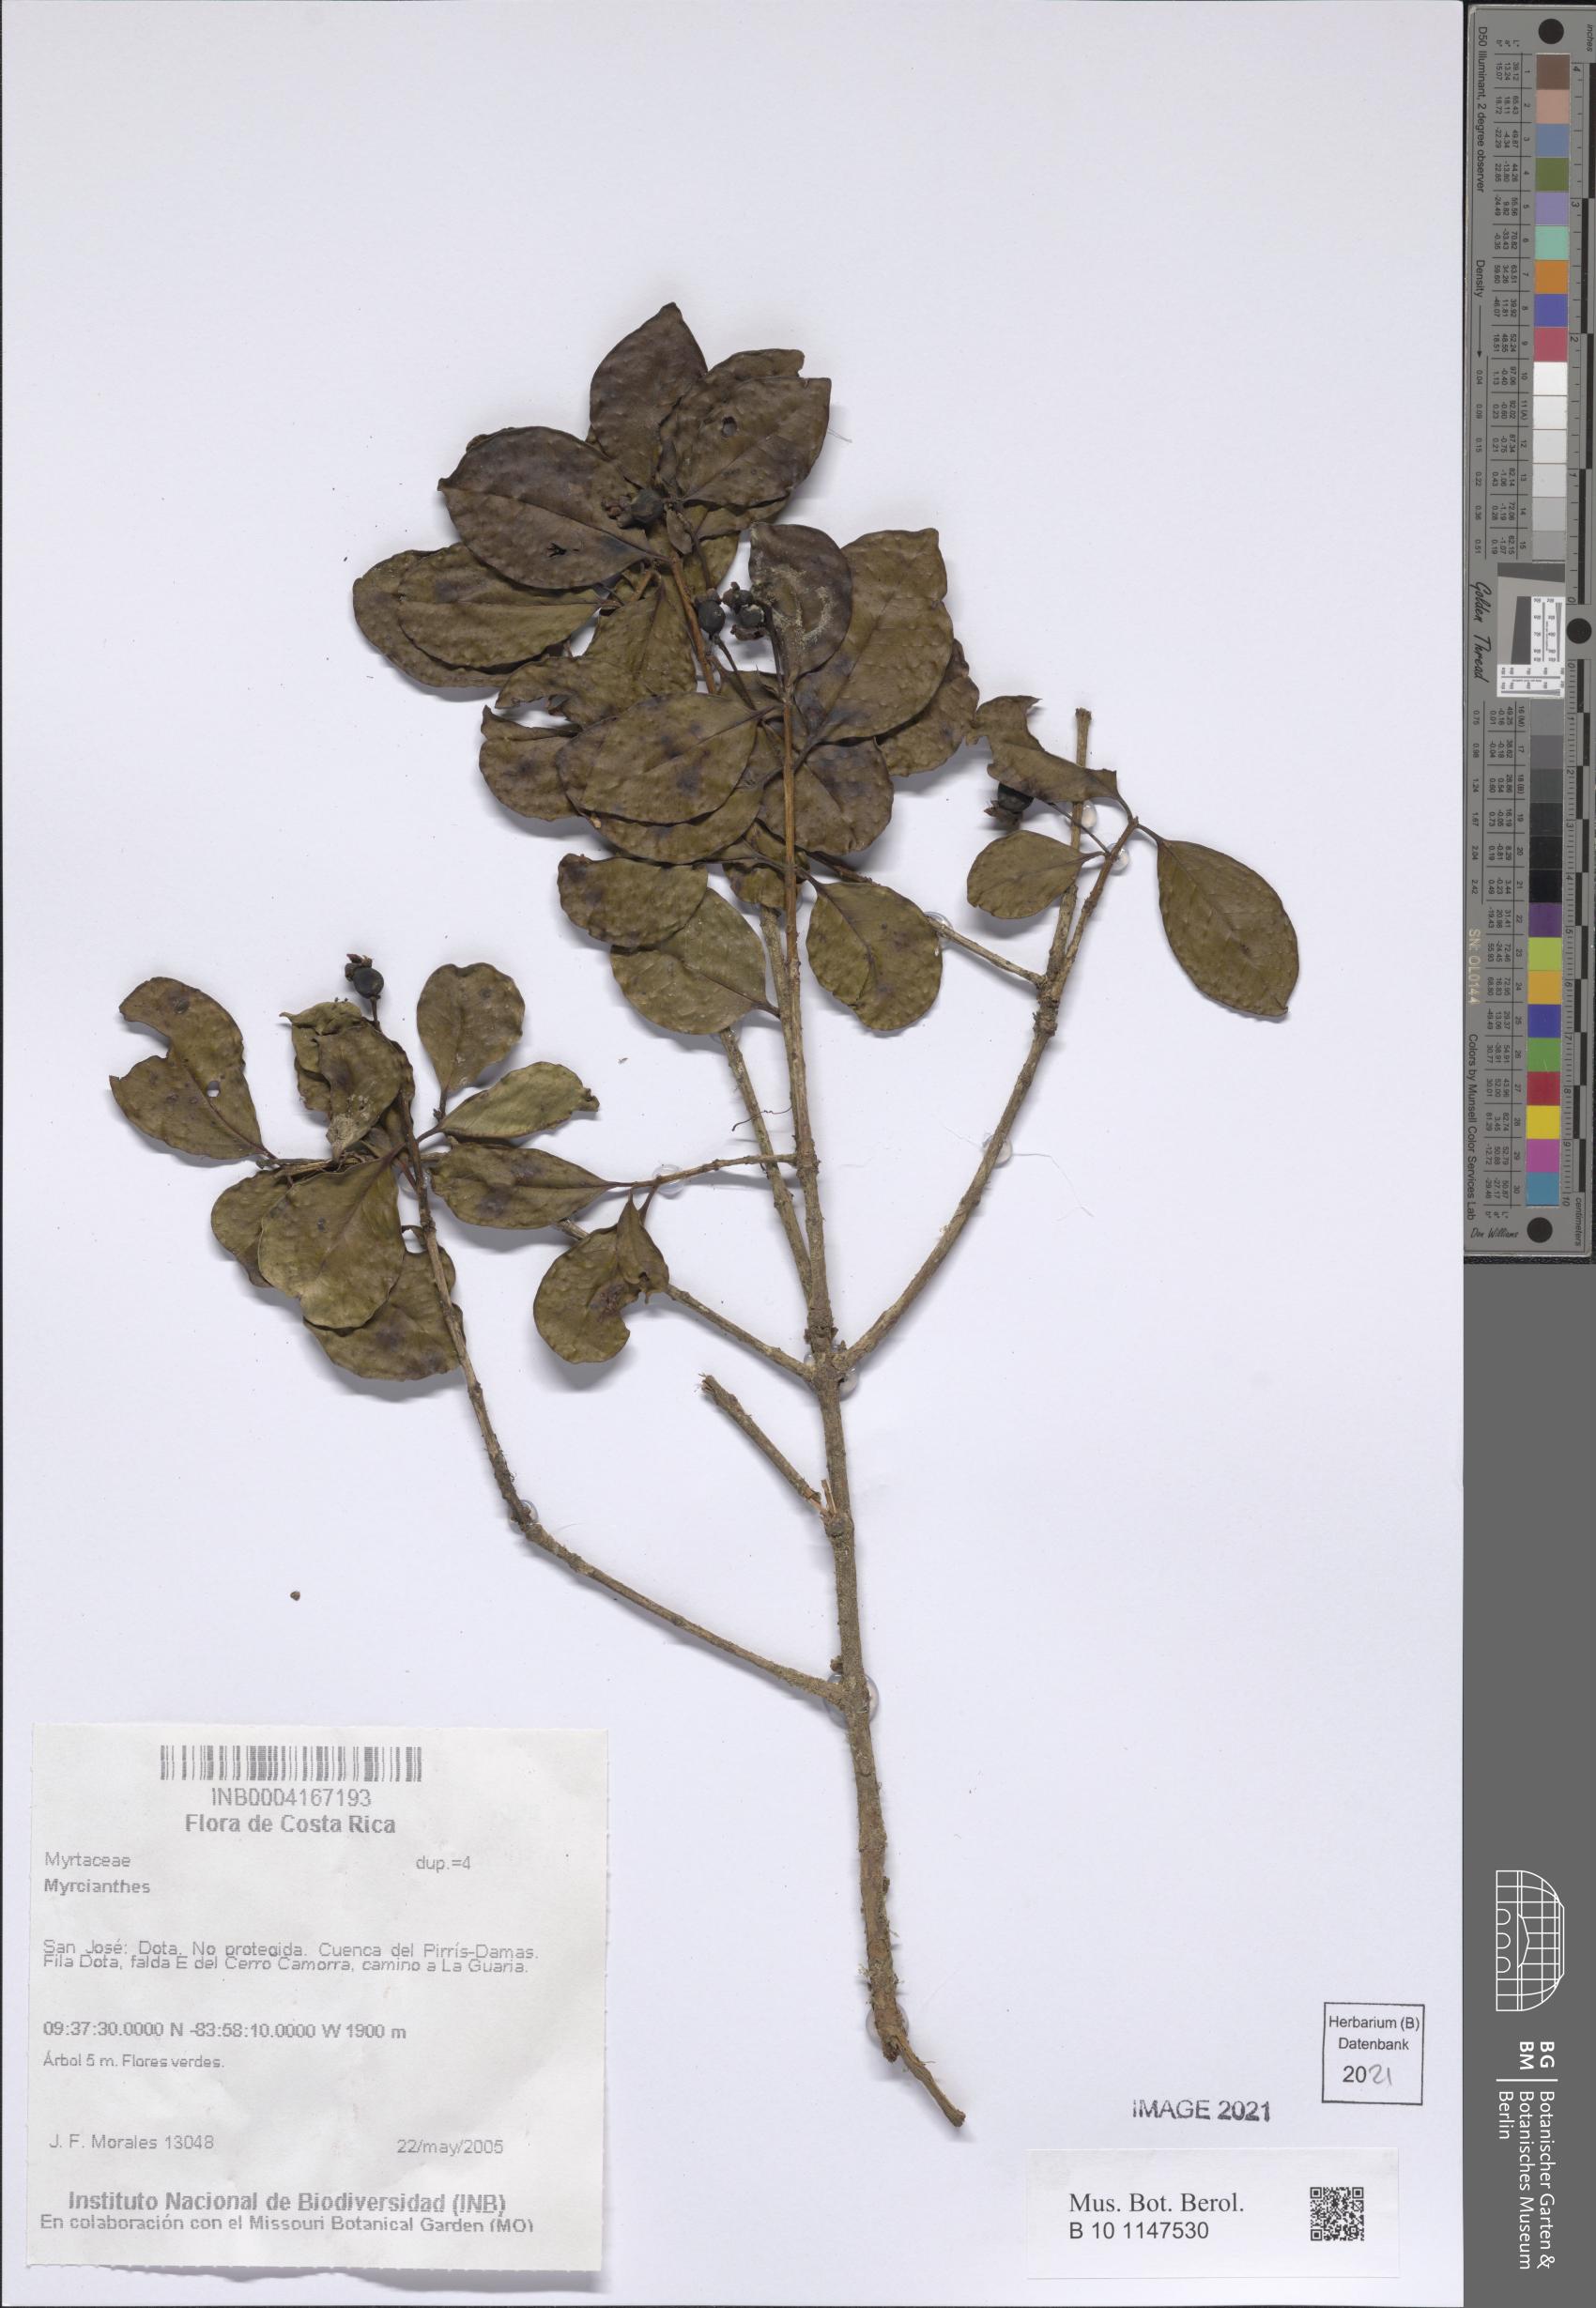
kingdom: Plantae
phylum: Tracheophyta
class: Magnoliopsida
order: Myrtales
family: Myrtaceae
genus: Myrcianthes
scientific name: Myrcianthes
